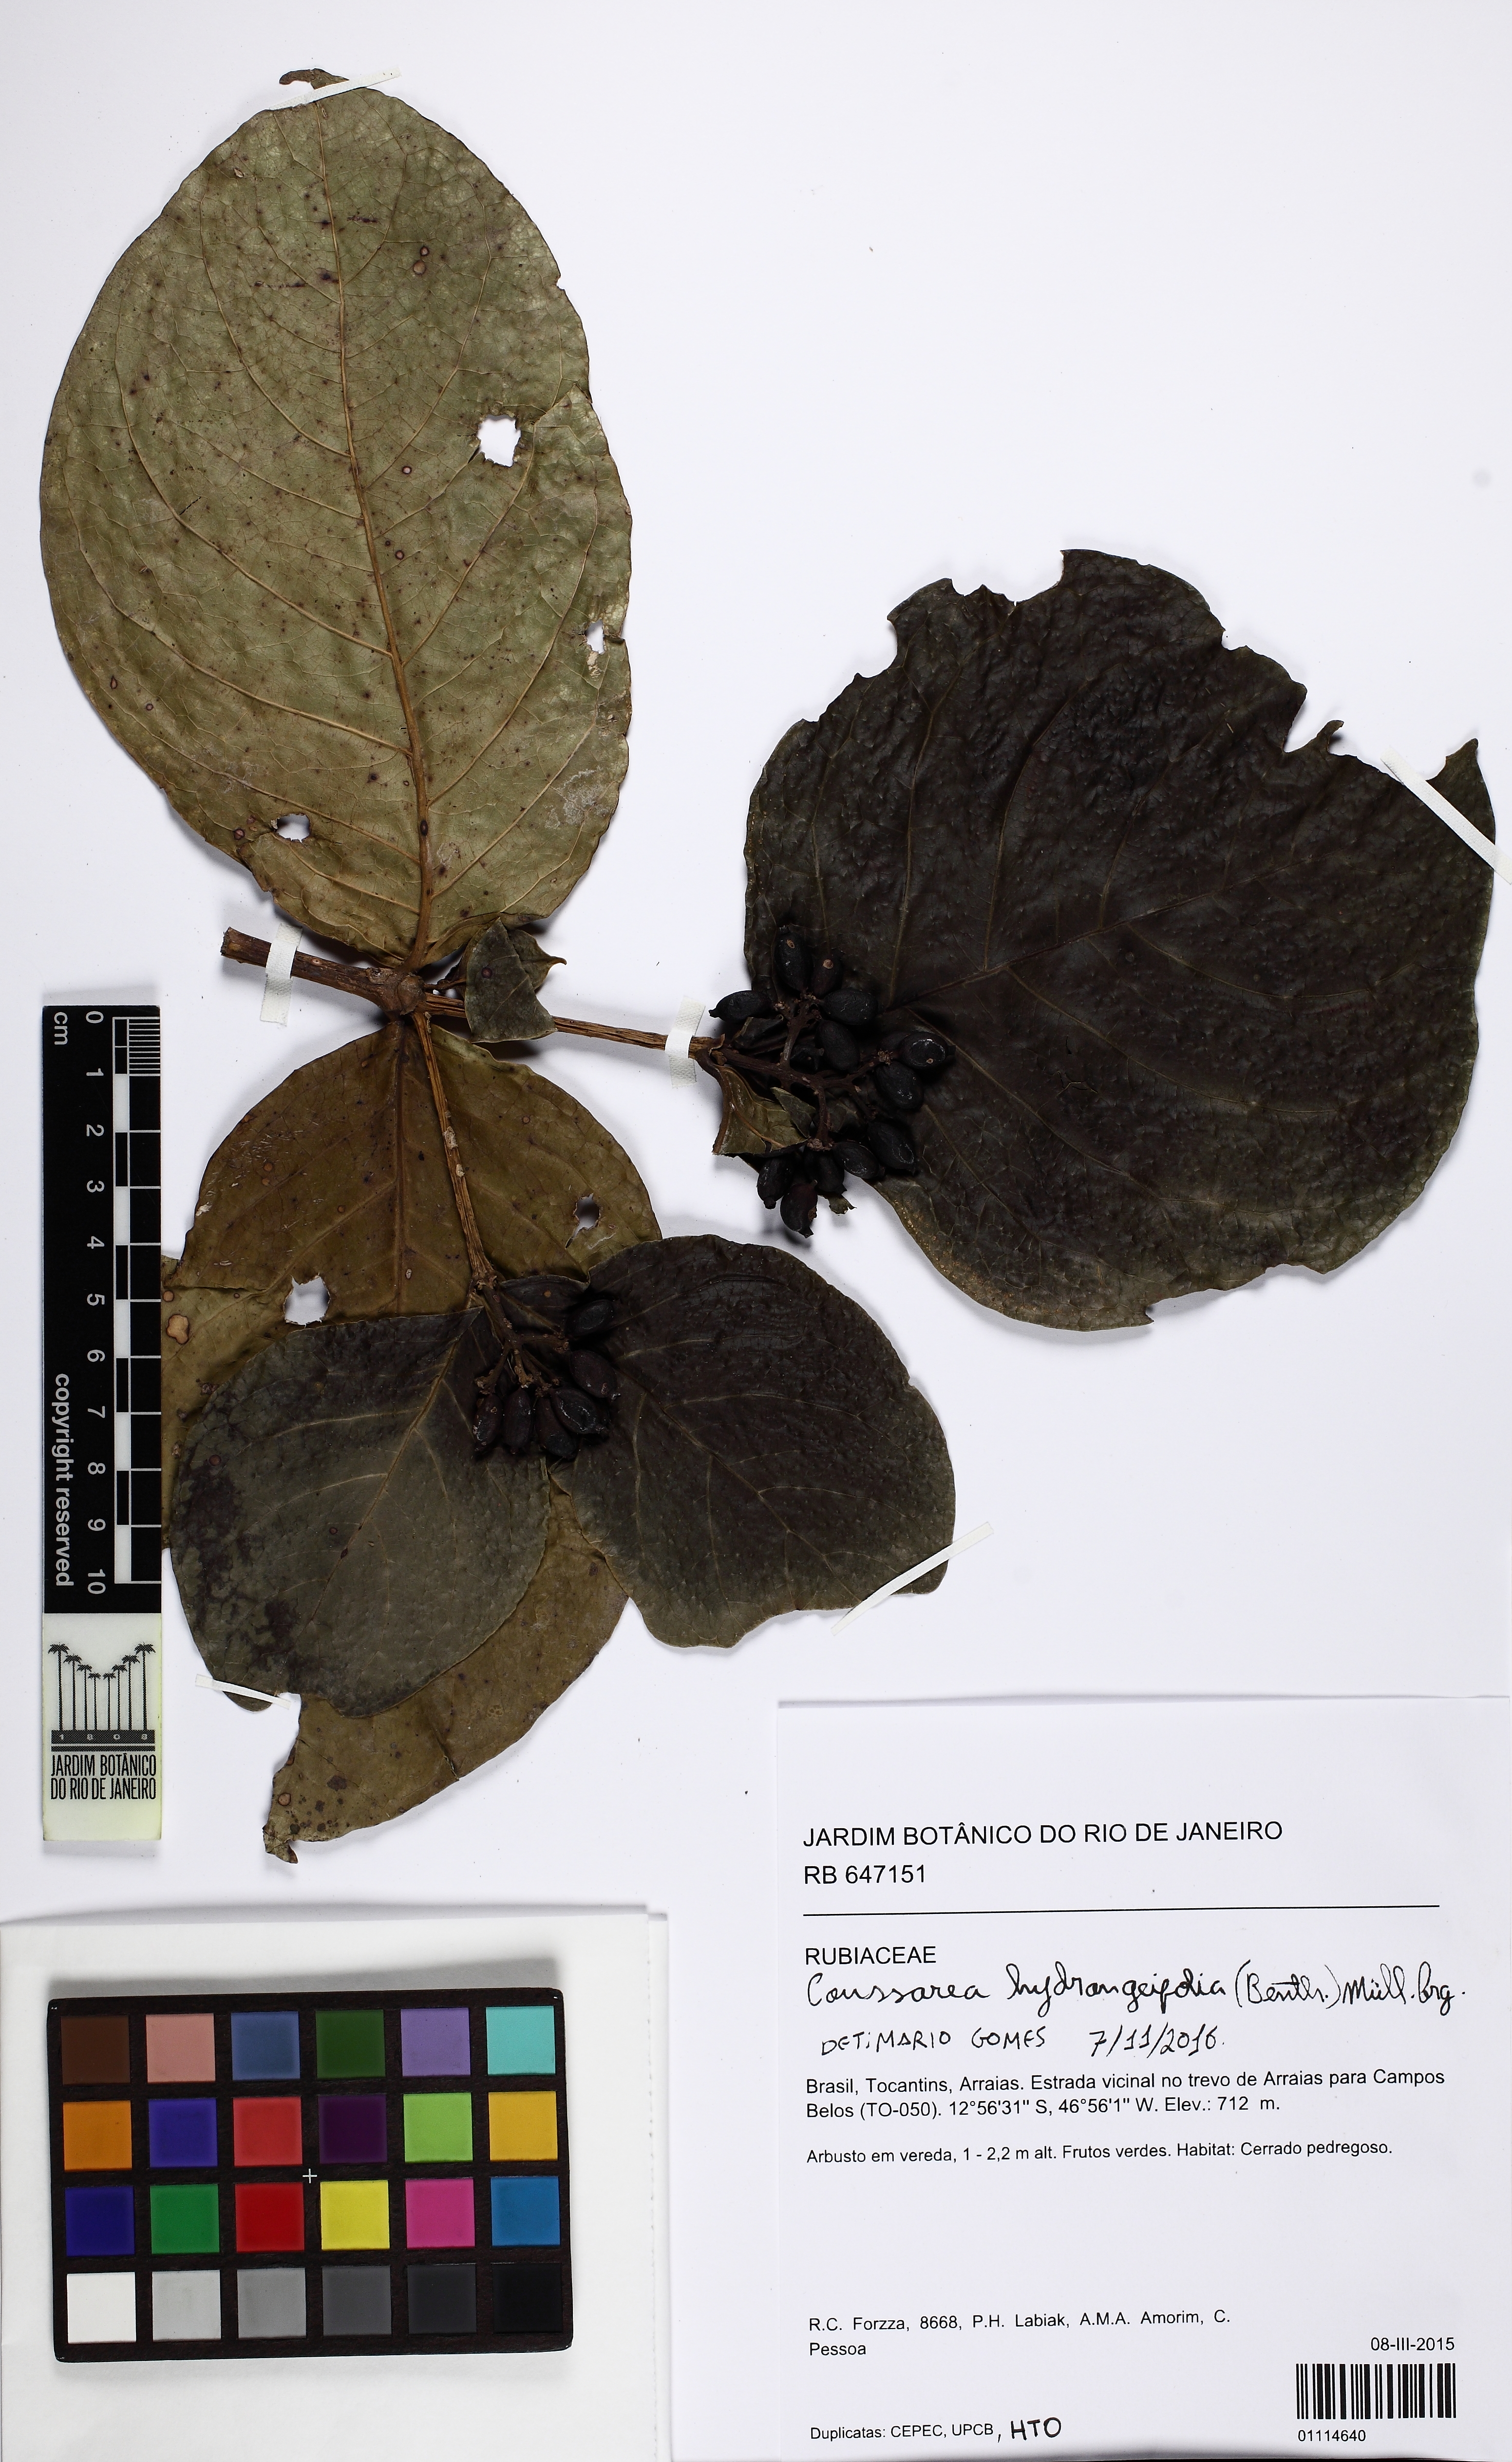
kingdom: Plantae
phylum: Tracheophyta
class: Magnoliopsida
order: Gentianales
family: Rubiaceae
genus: Coussarea
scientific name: Coussarea hyacinthiflora
